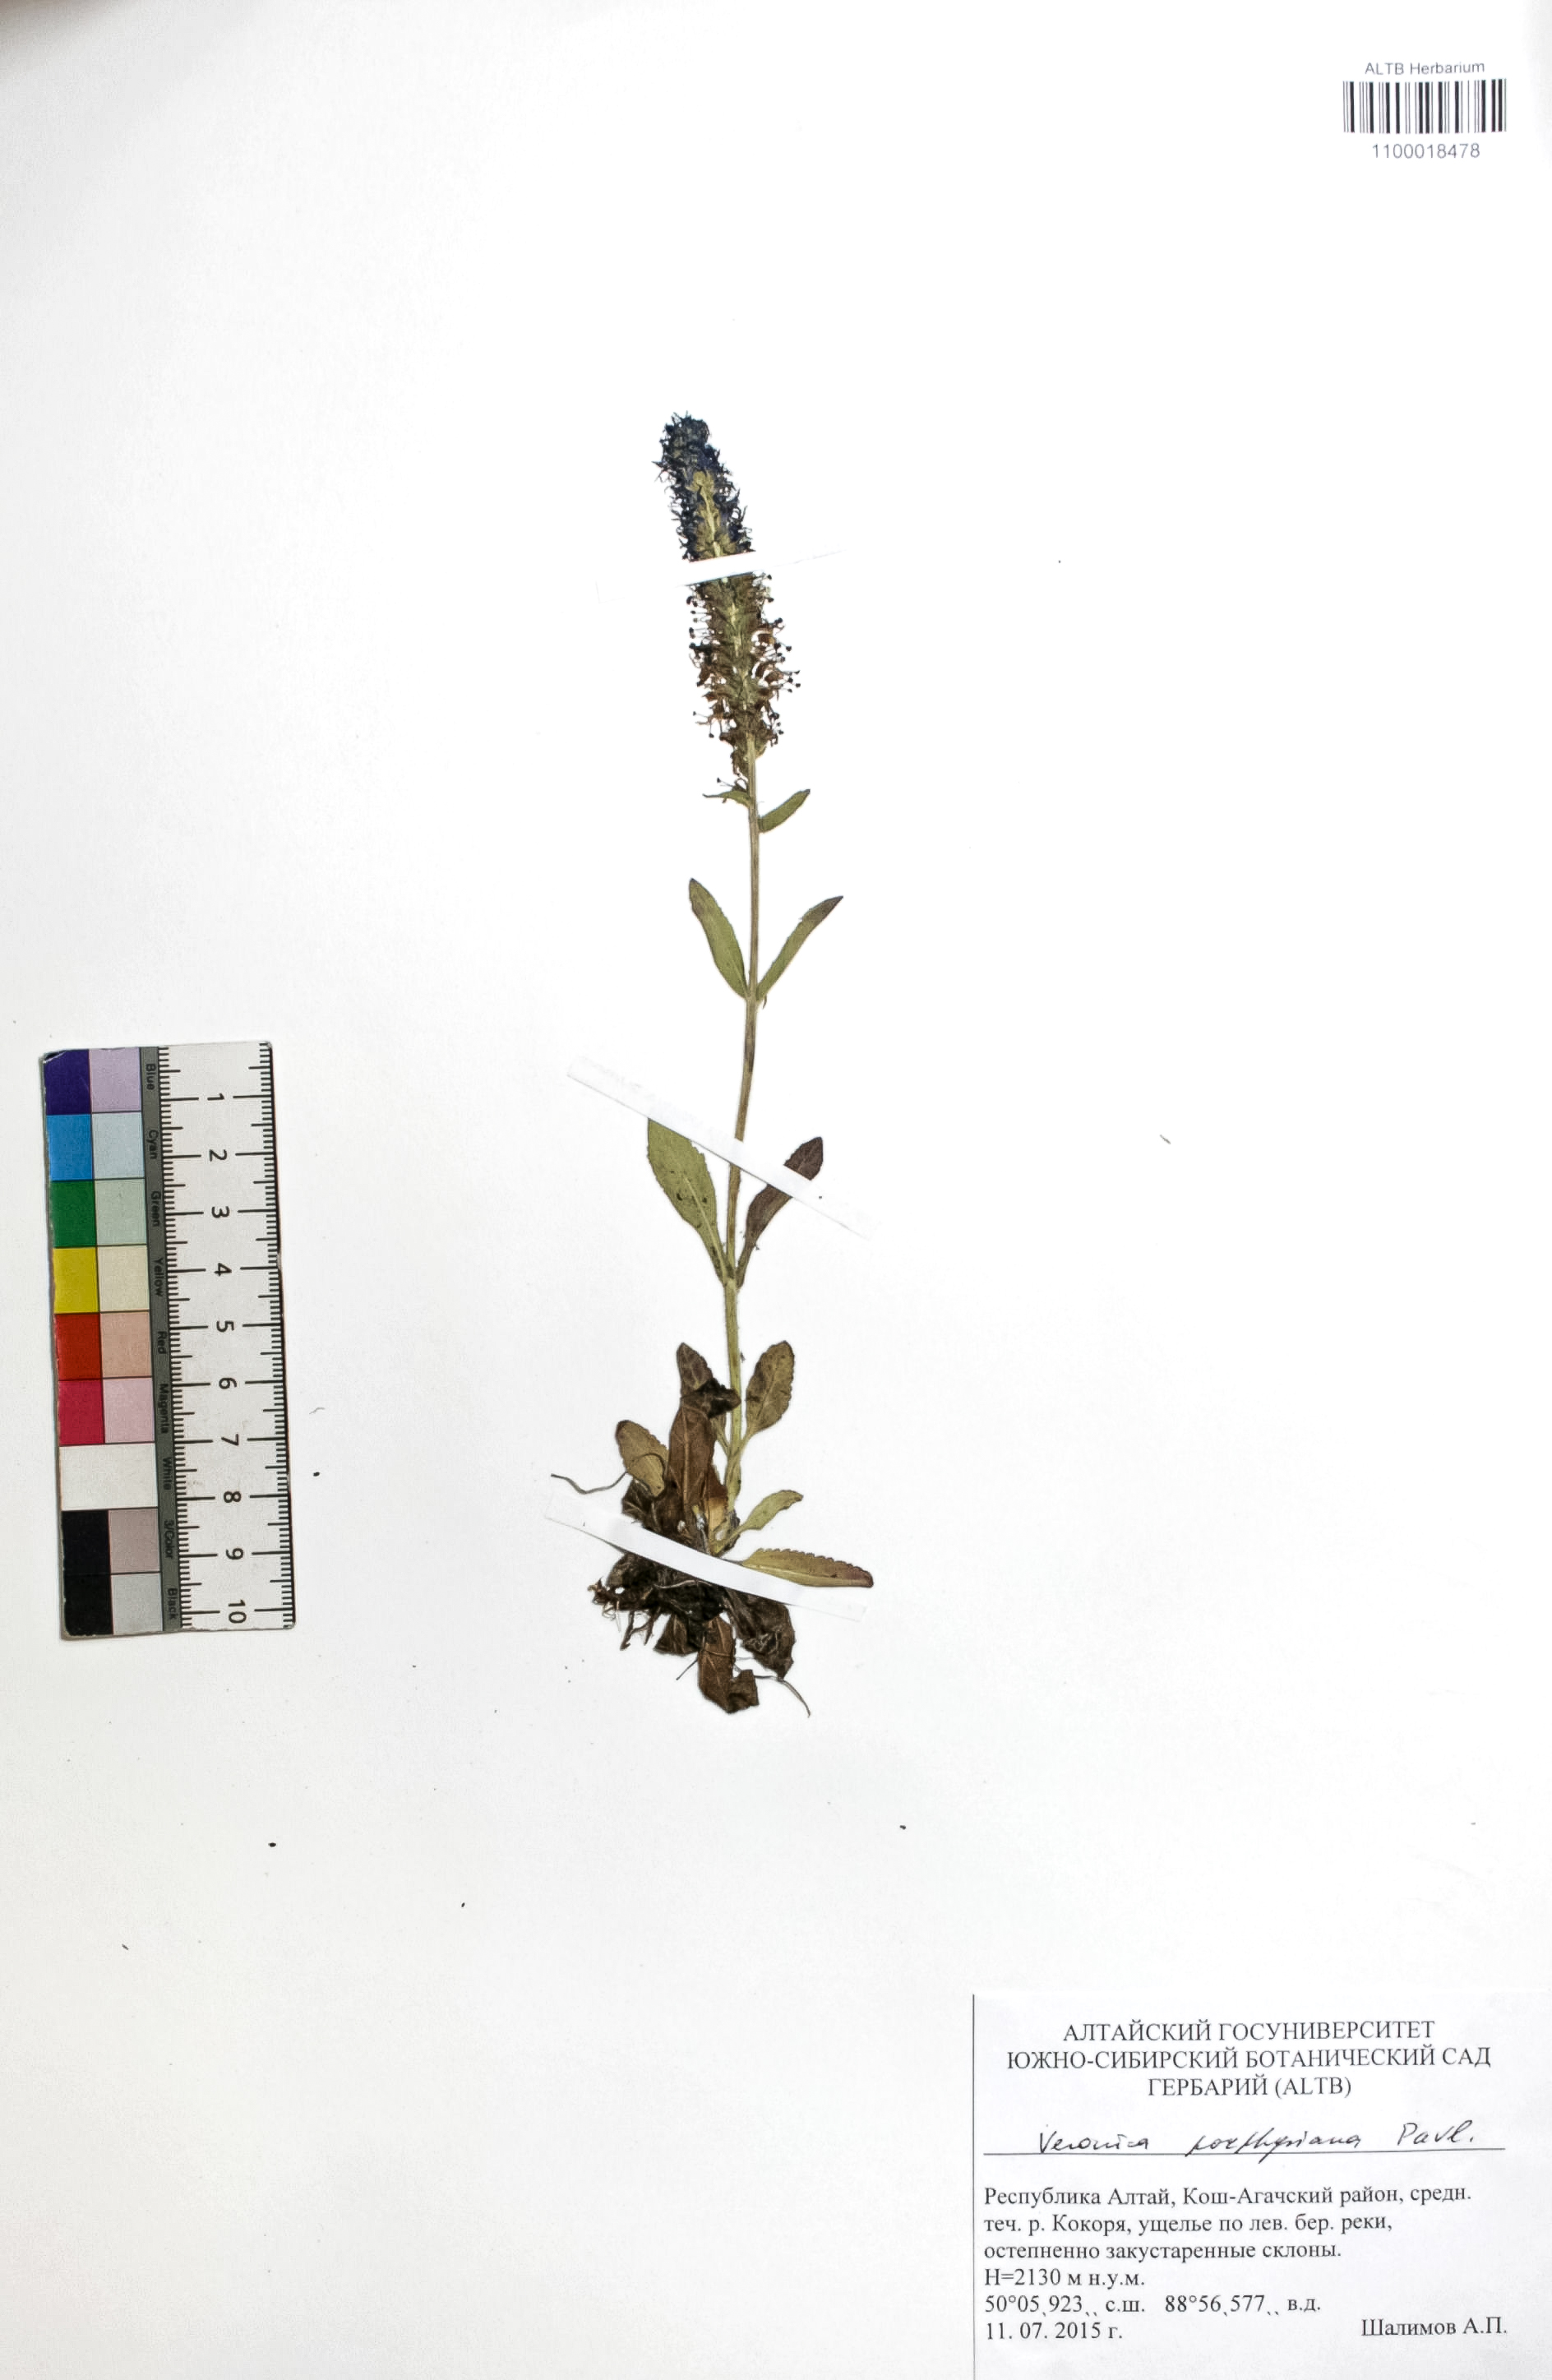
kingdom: Plantae
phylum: Tracheophyta
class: Magnoliopsida
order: Lamiales
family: Plantaginaceae
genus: Veronica
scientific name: Veronica porphyriana
